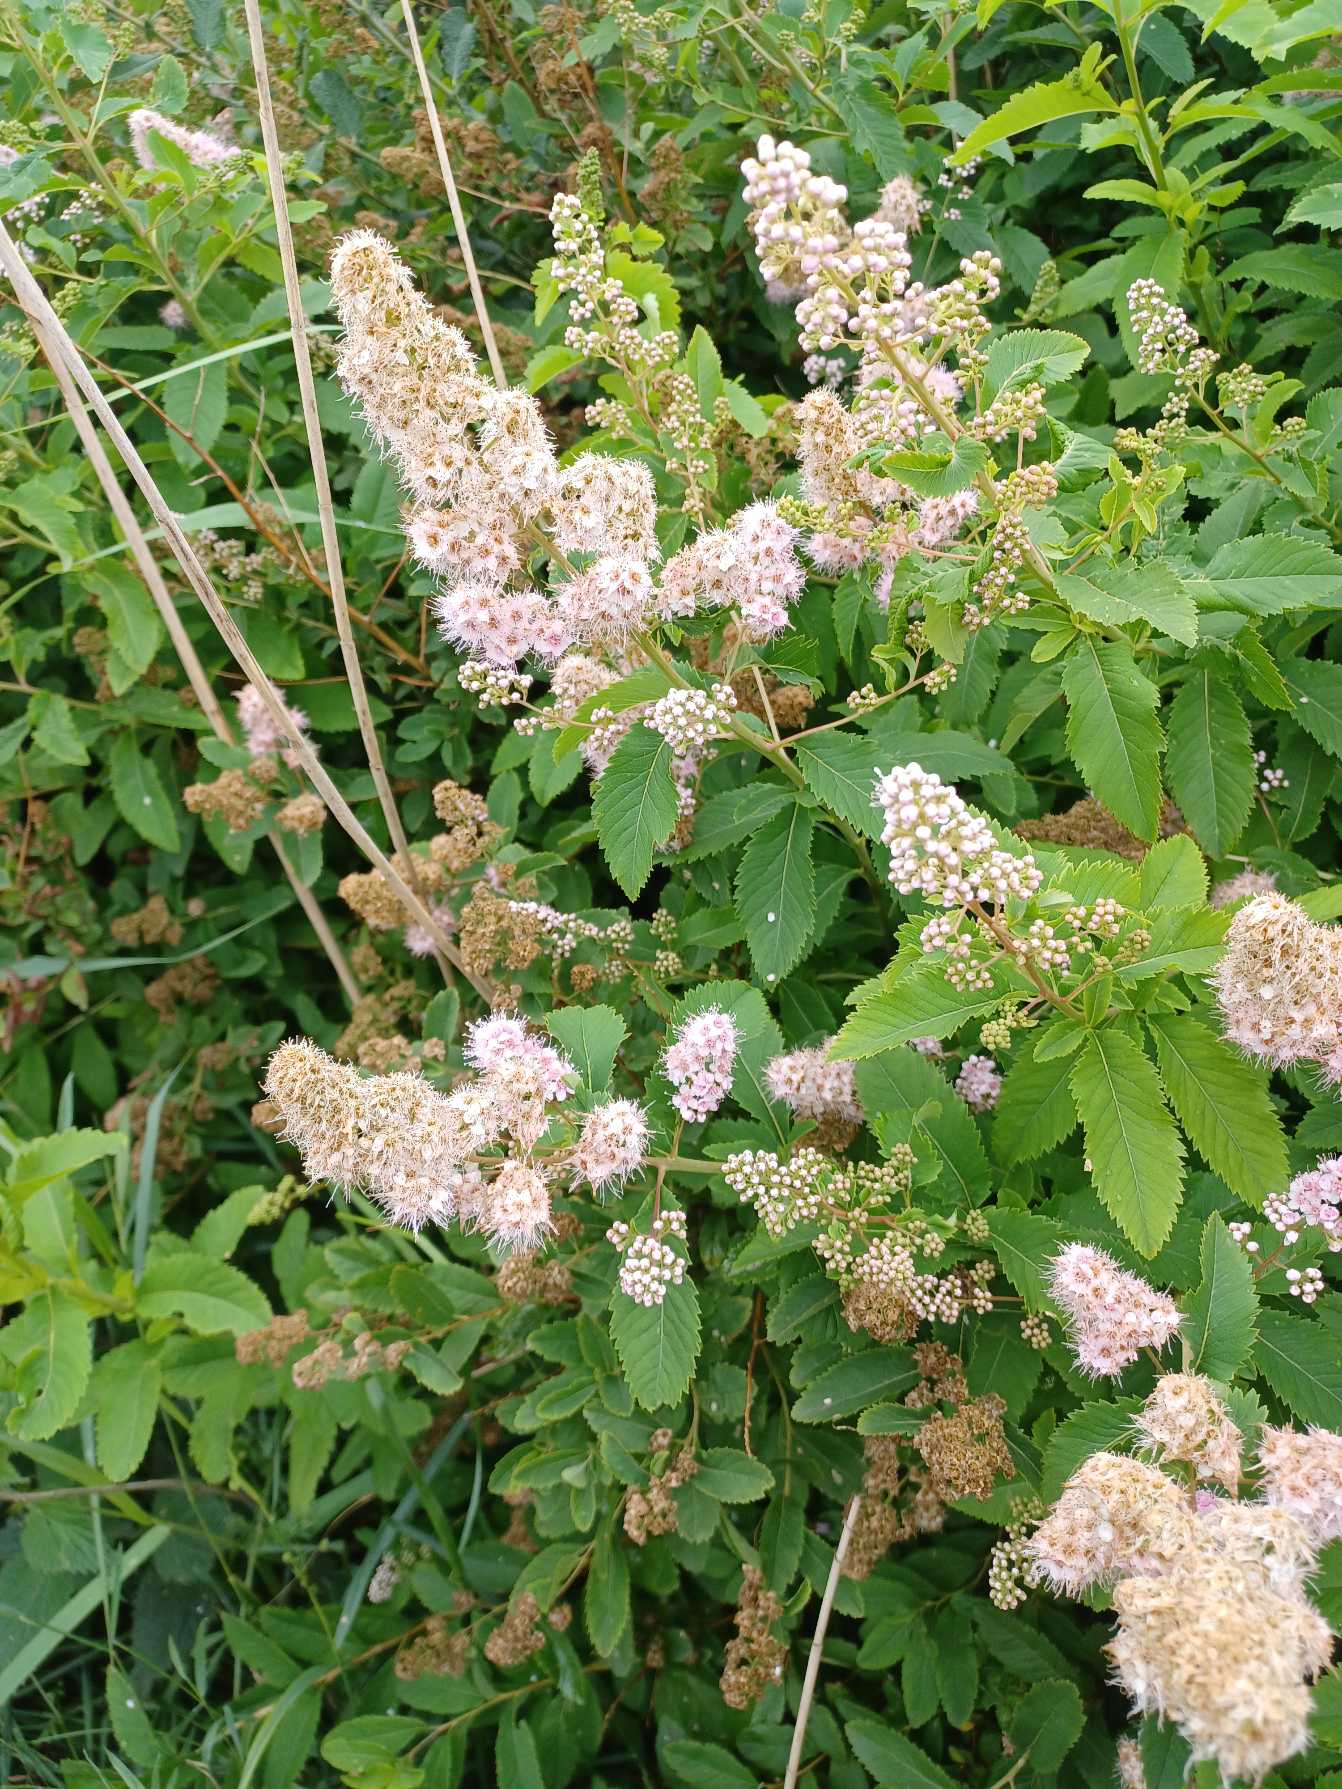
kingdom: Plantae
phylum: Tracheophyta
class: Magnoliopsida
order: Rosales
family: Rosaceae
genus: Spiraea
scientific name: Spiraea alba
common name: Bredbladet spiræa
